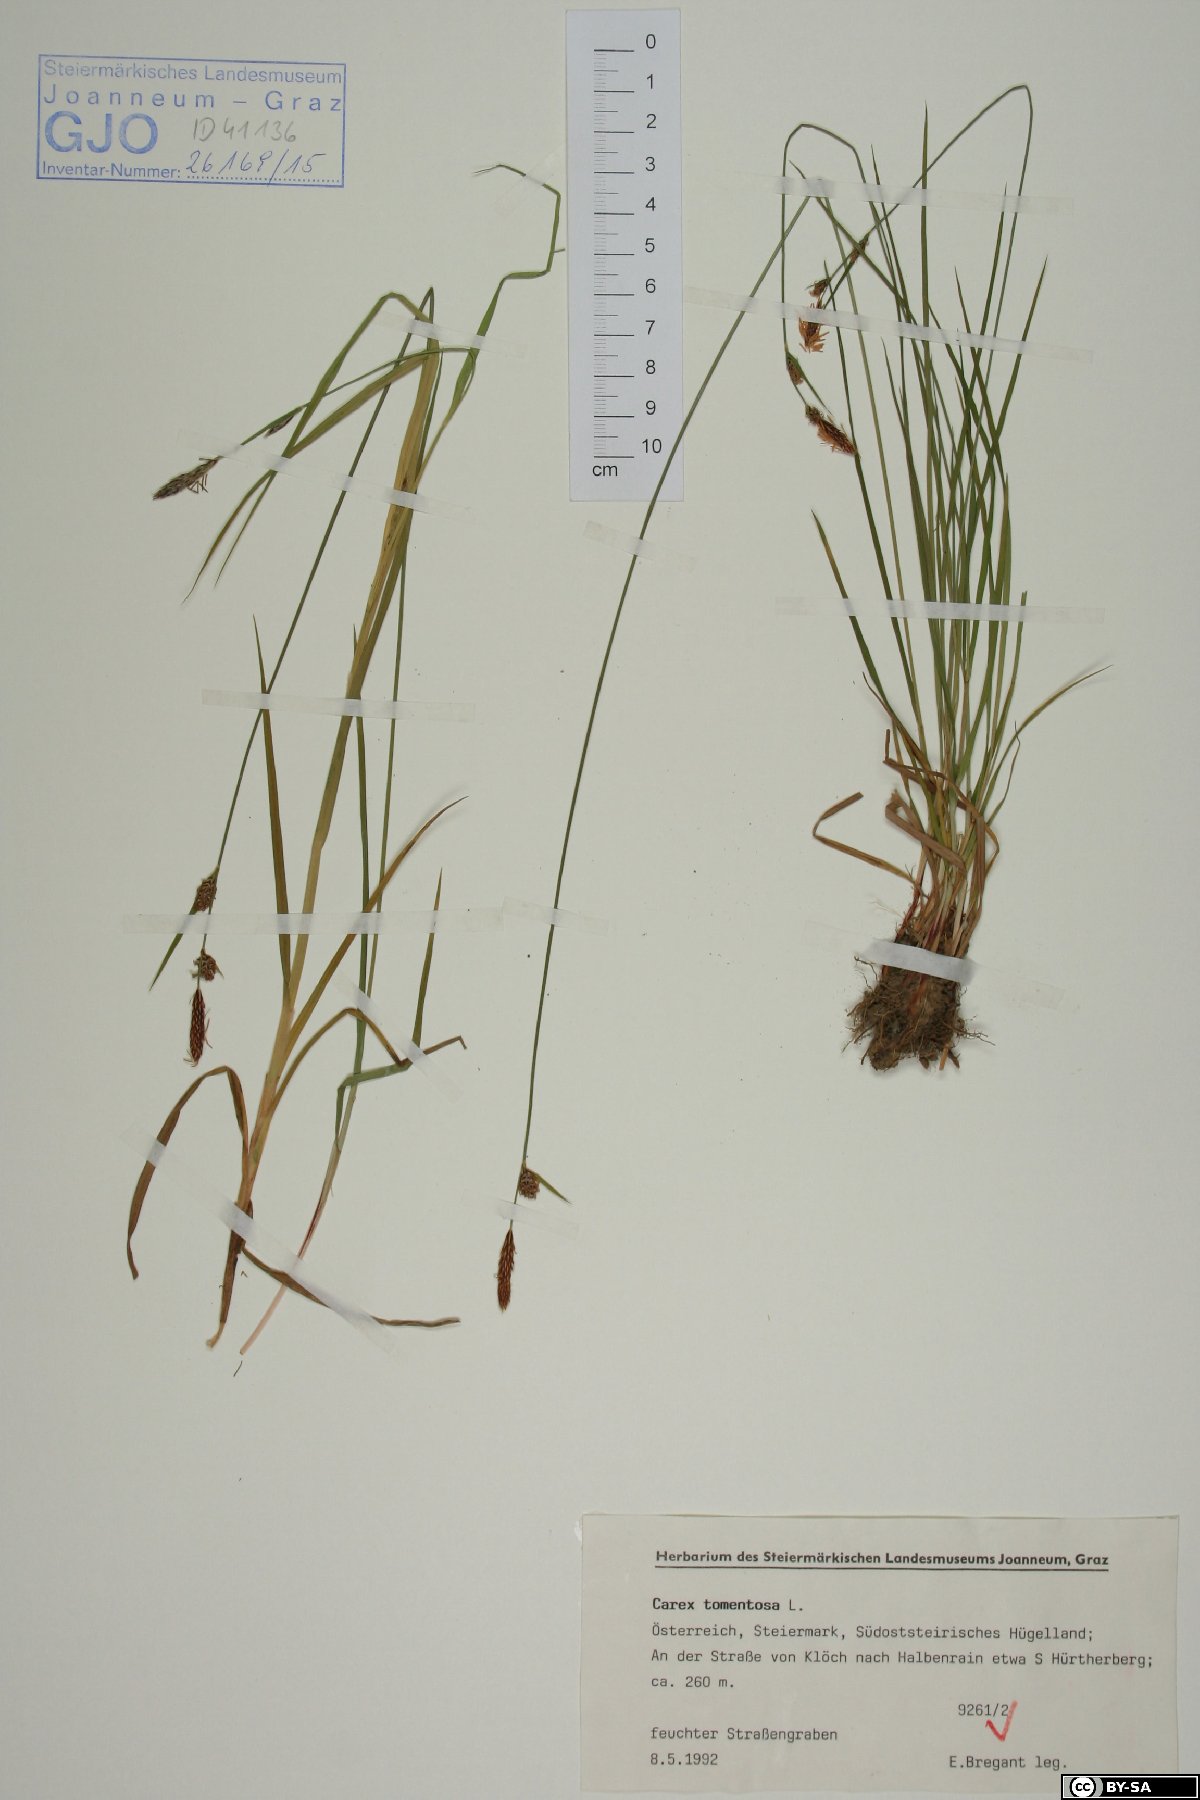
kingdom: Plantae
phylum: Tracheophyta
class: Liliopsida
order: Poales
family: Cyperaceae
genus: Carex
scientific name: Carex tomentosa
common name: Downy-fruited sedge
